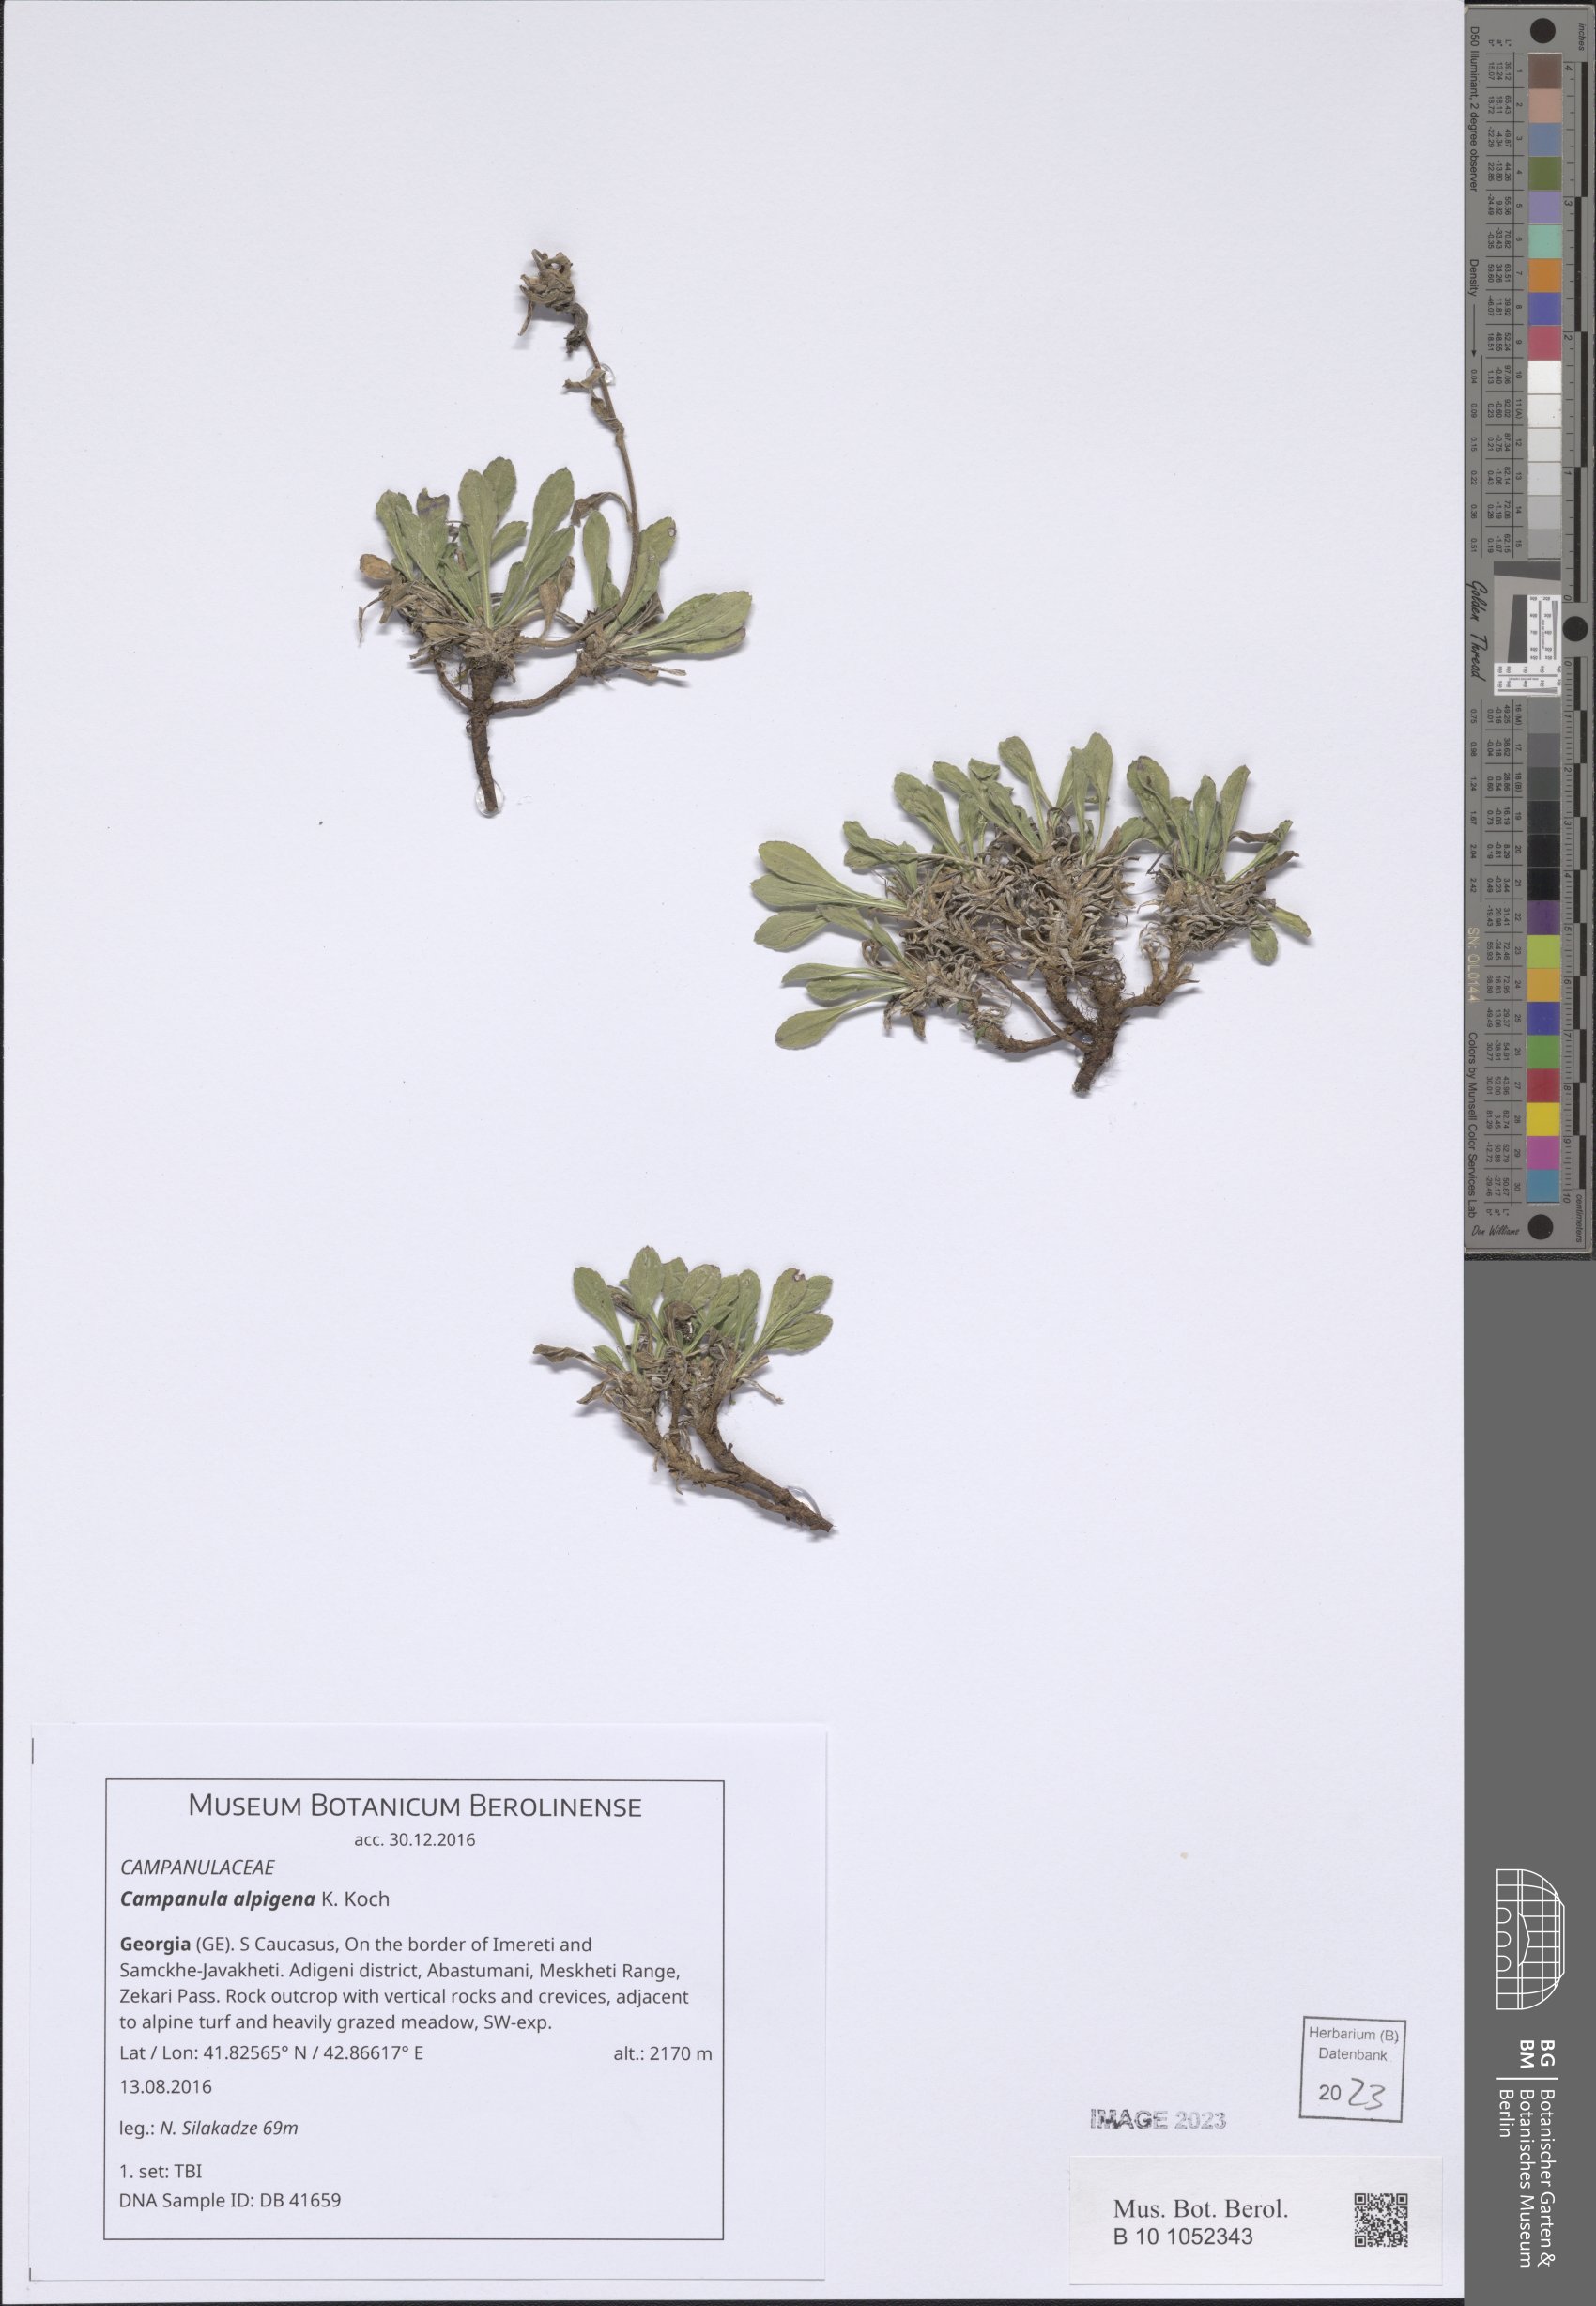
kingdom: Plantae
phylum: Tracheophyta
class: Magnoliopsida
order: Asterales
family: Campanulaceae
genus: Campanula
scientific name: Campanula saxifraga
